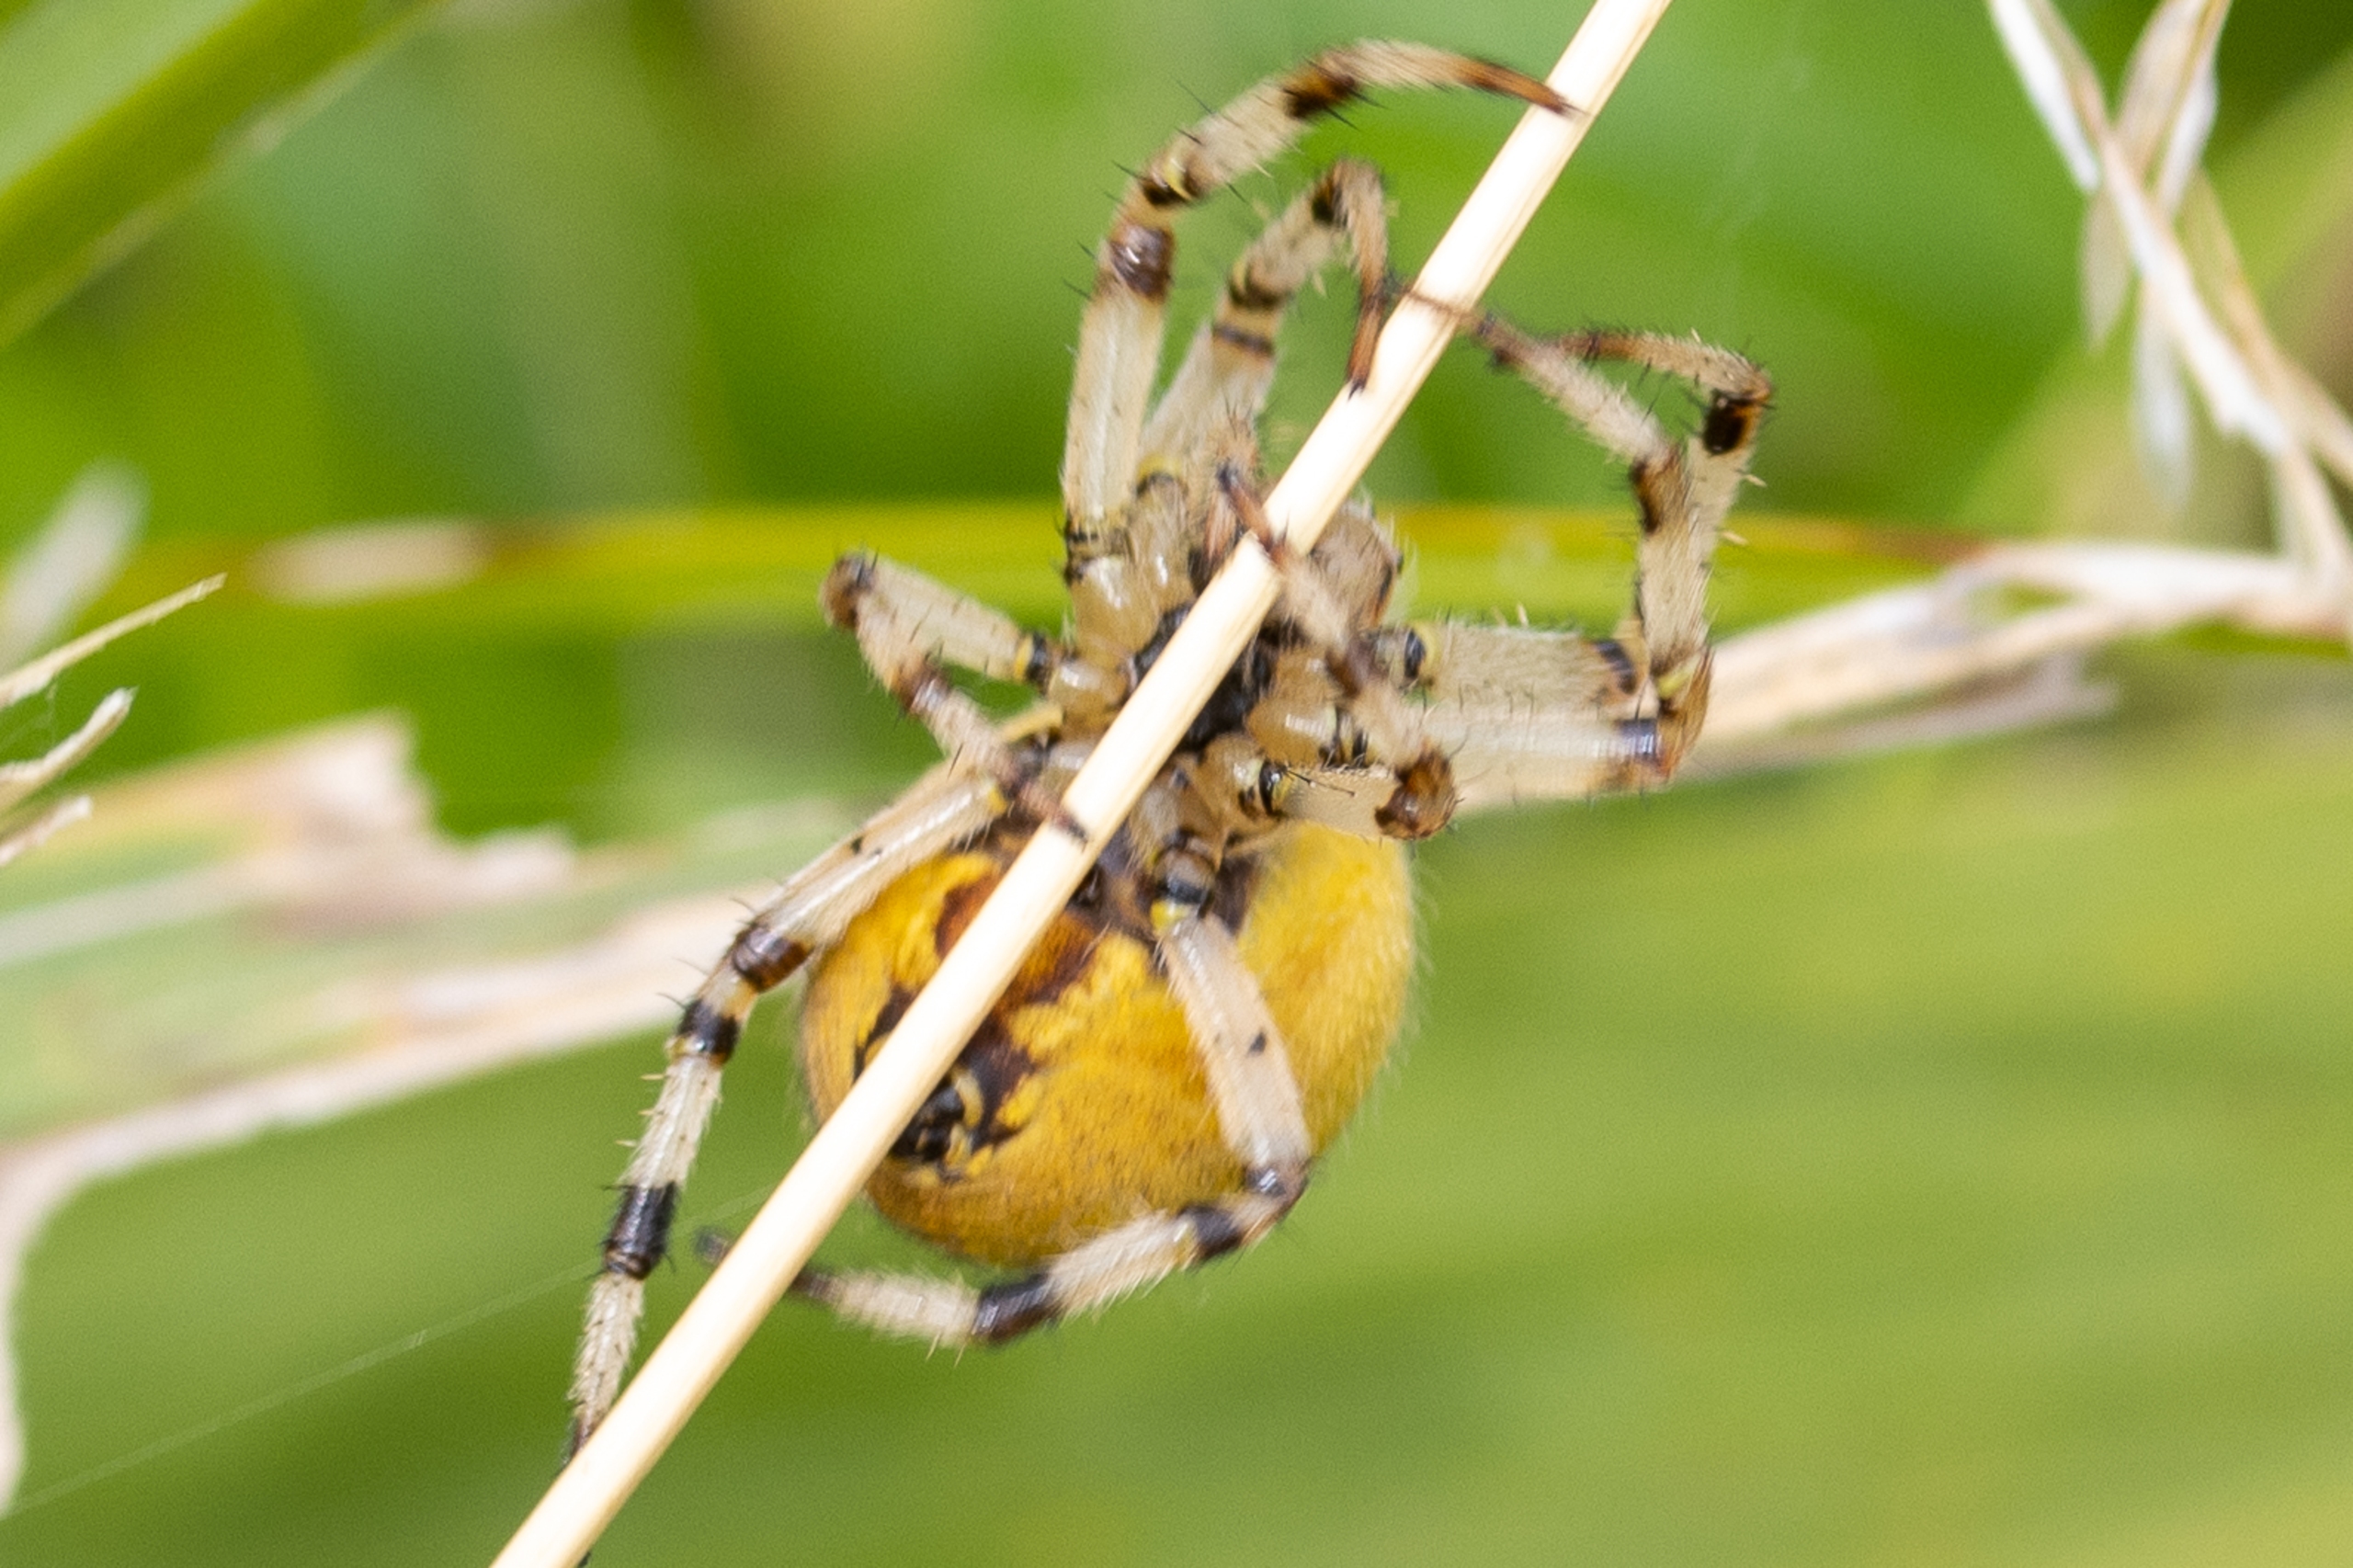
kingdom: Animalia
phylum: Arthropoda
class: Arachnida
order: Araneae
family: Araneidae
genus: Araneus
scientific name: Araneus quadratus
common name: Kvadratedderkop
